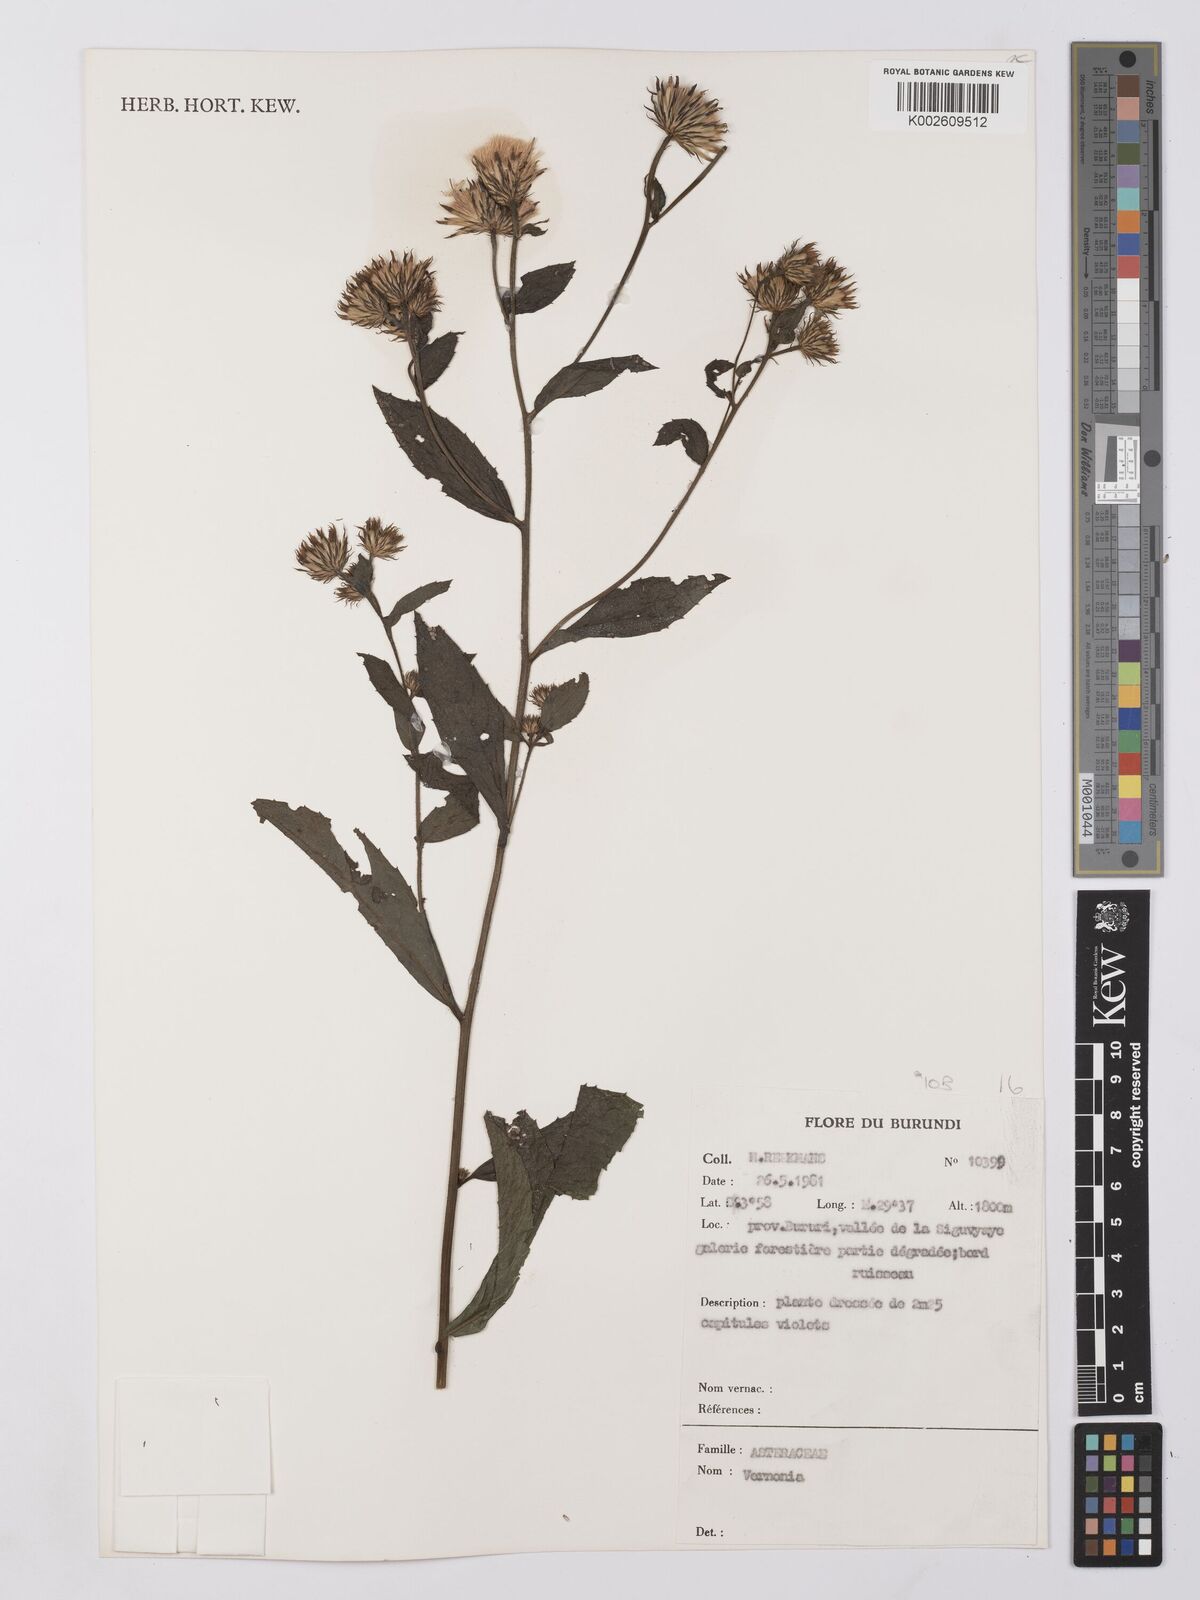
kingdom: Plantae
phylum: Tracheophyta
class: Magnoliopsida
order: Asterales
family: Asteraceae
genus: Vernonia
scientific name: Vernonia
